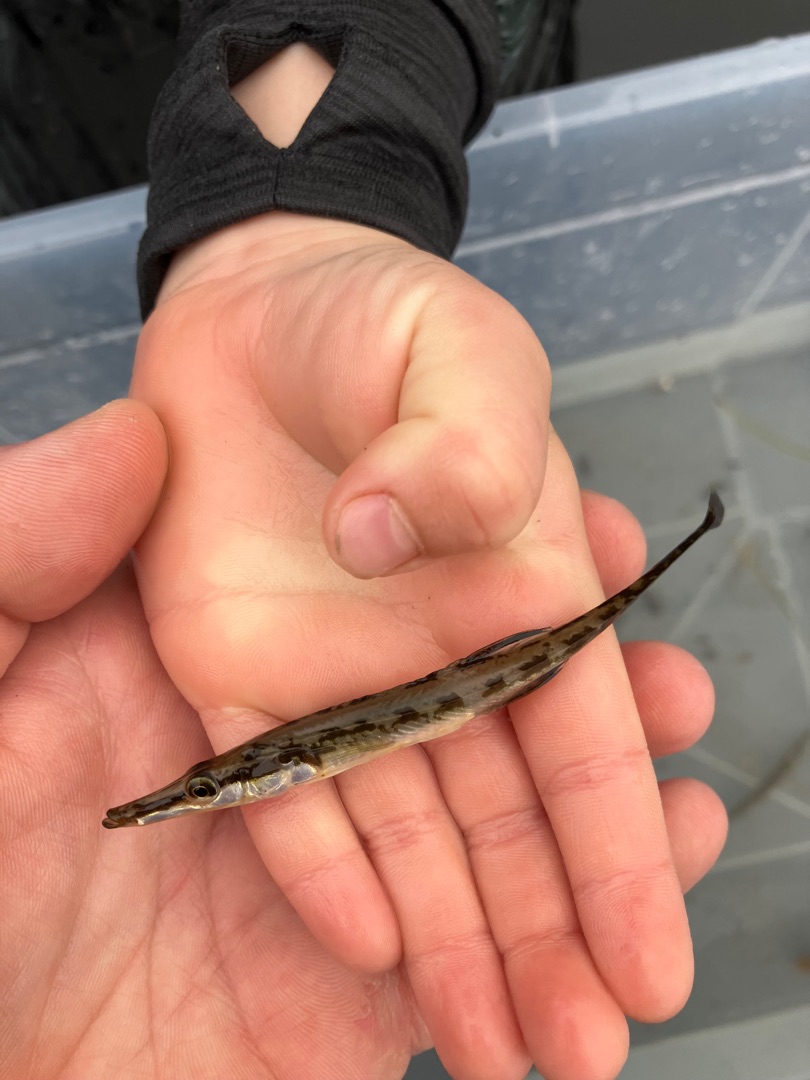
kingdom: Animalia
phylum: Chordata
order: Gasterosteiformes
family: Gasterosteidae
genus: Spinachia
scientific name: Spinachia spinachia
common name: Tangsnarre
